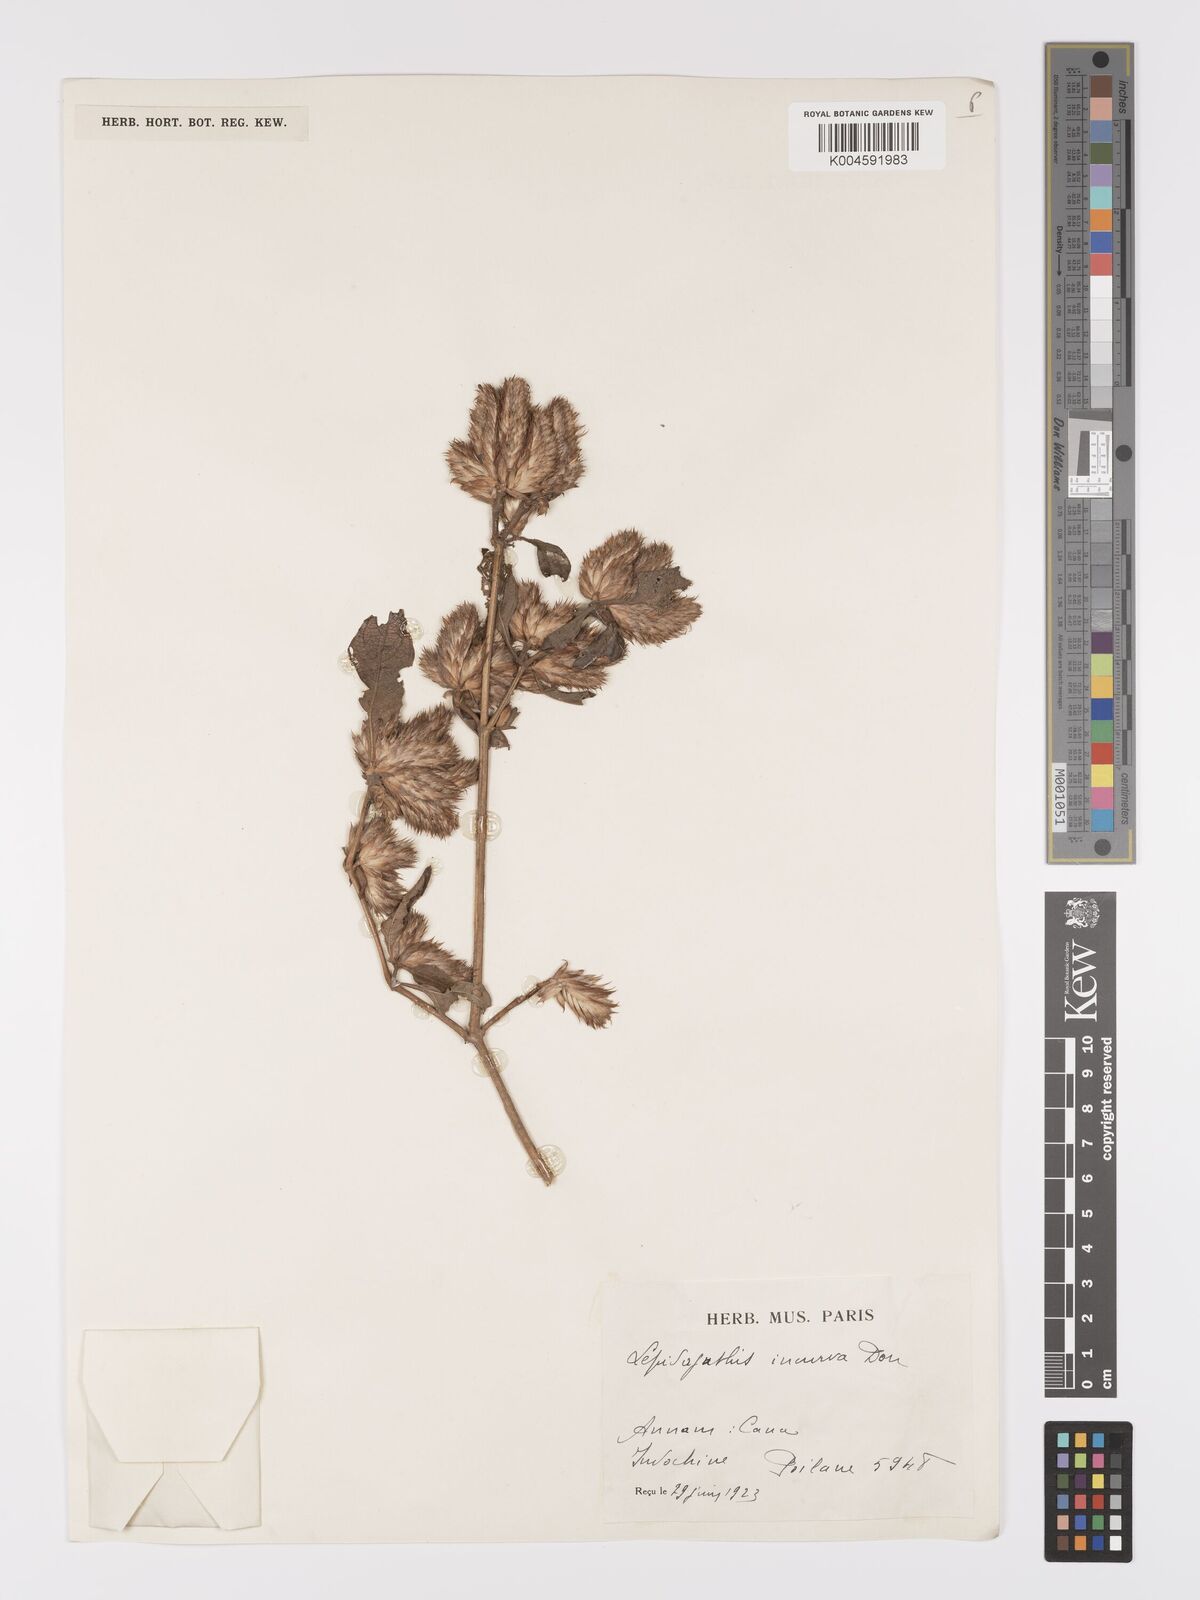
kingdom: Plantae
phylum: Tracheophyta
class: Magnoliopsida
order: Lamiales
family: Acanthaceae
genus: Lepidagathis
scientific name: Lepidagathis incurva
